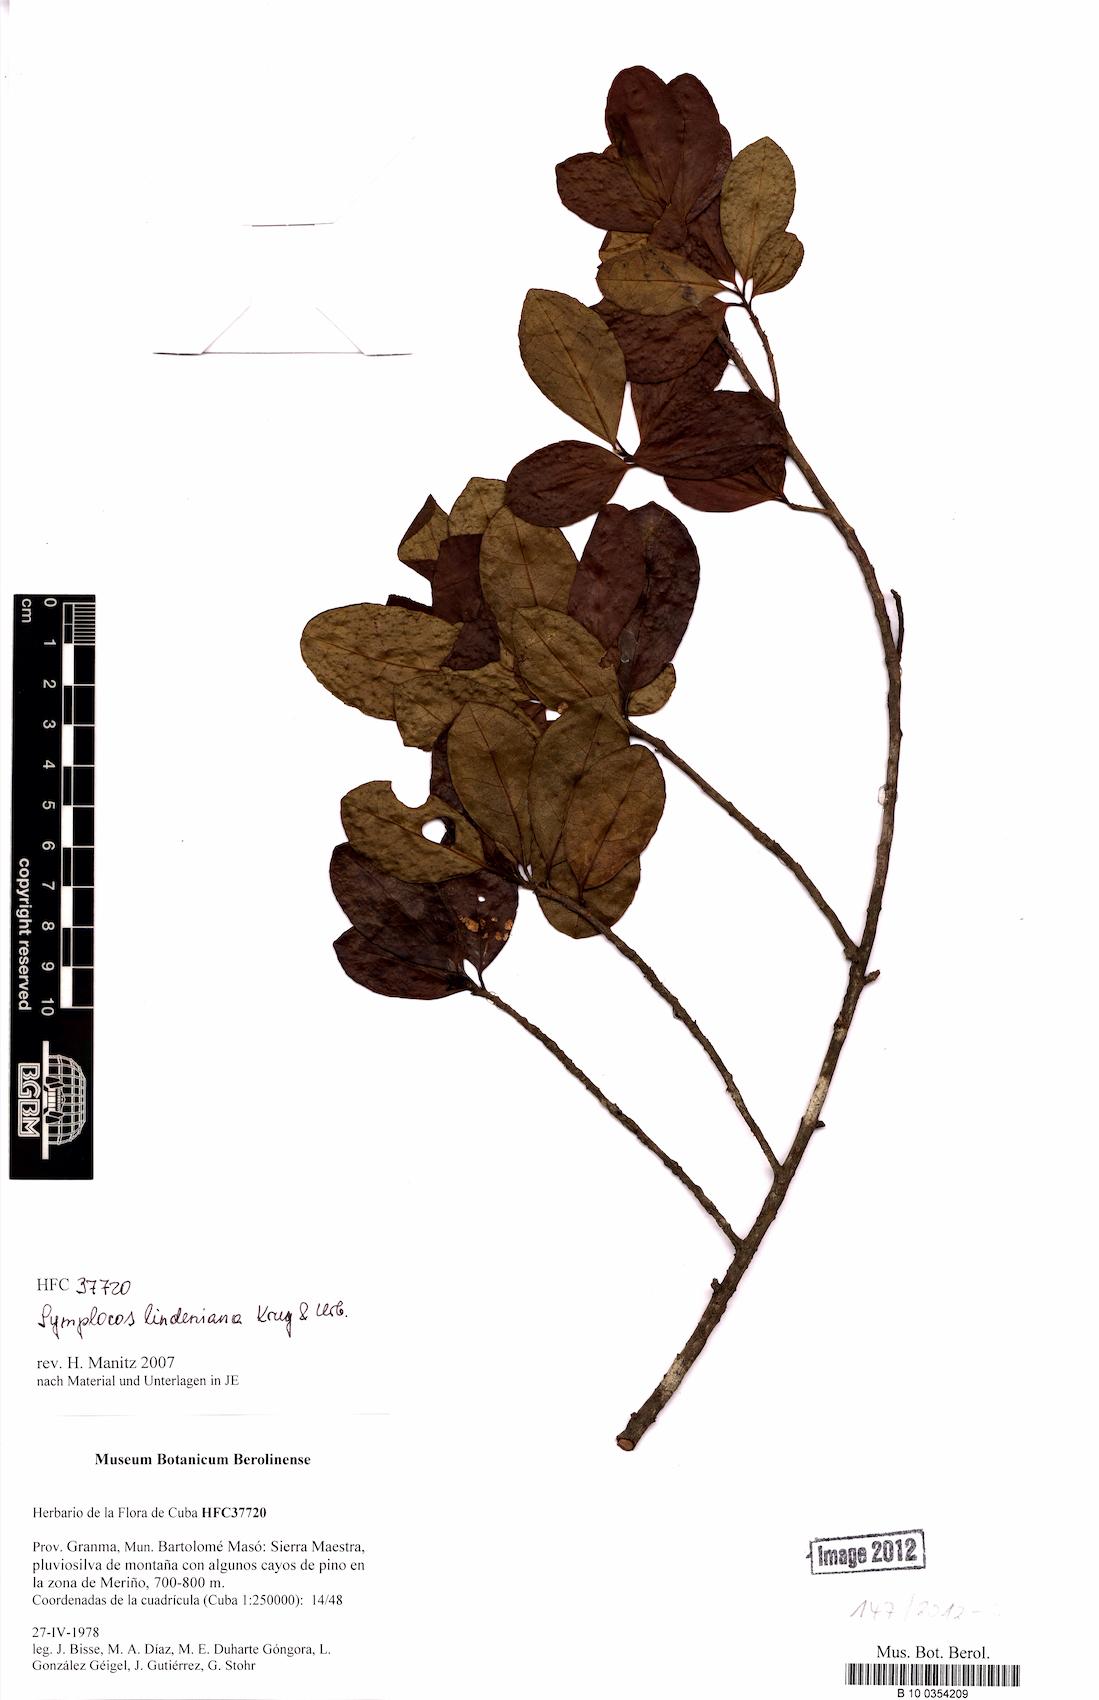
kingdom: Plantae
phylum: Tracheophyta
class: Magnoliopsida
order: Ericales
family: Symplocaceae
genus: Symplocos
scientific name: Symplocos cubensis
